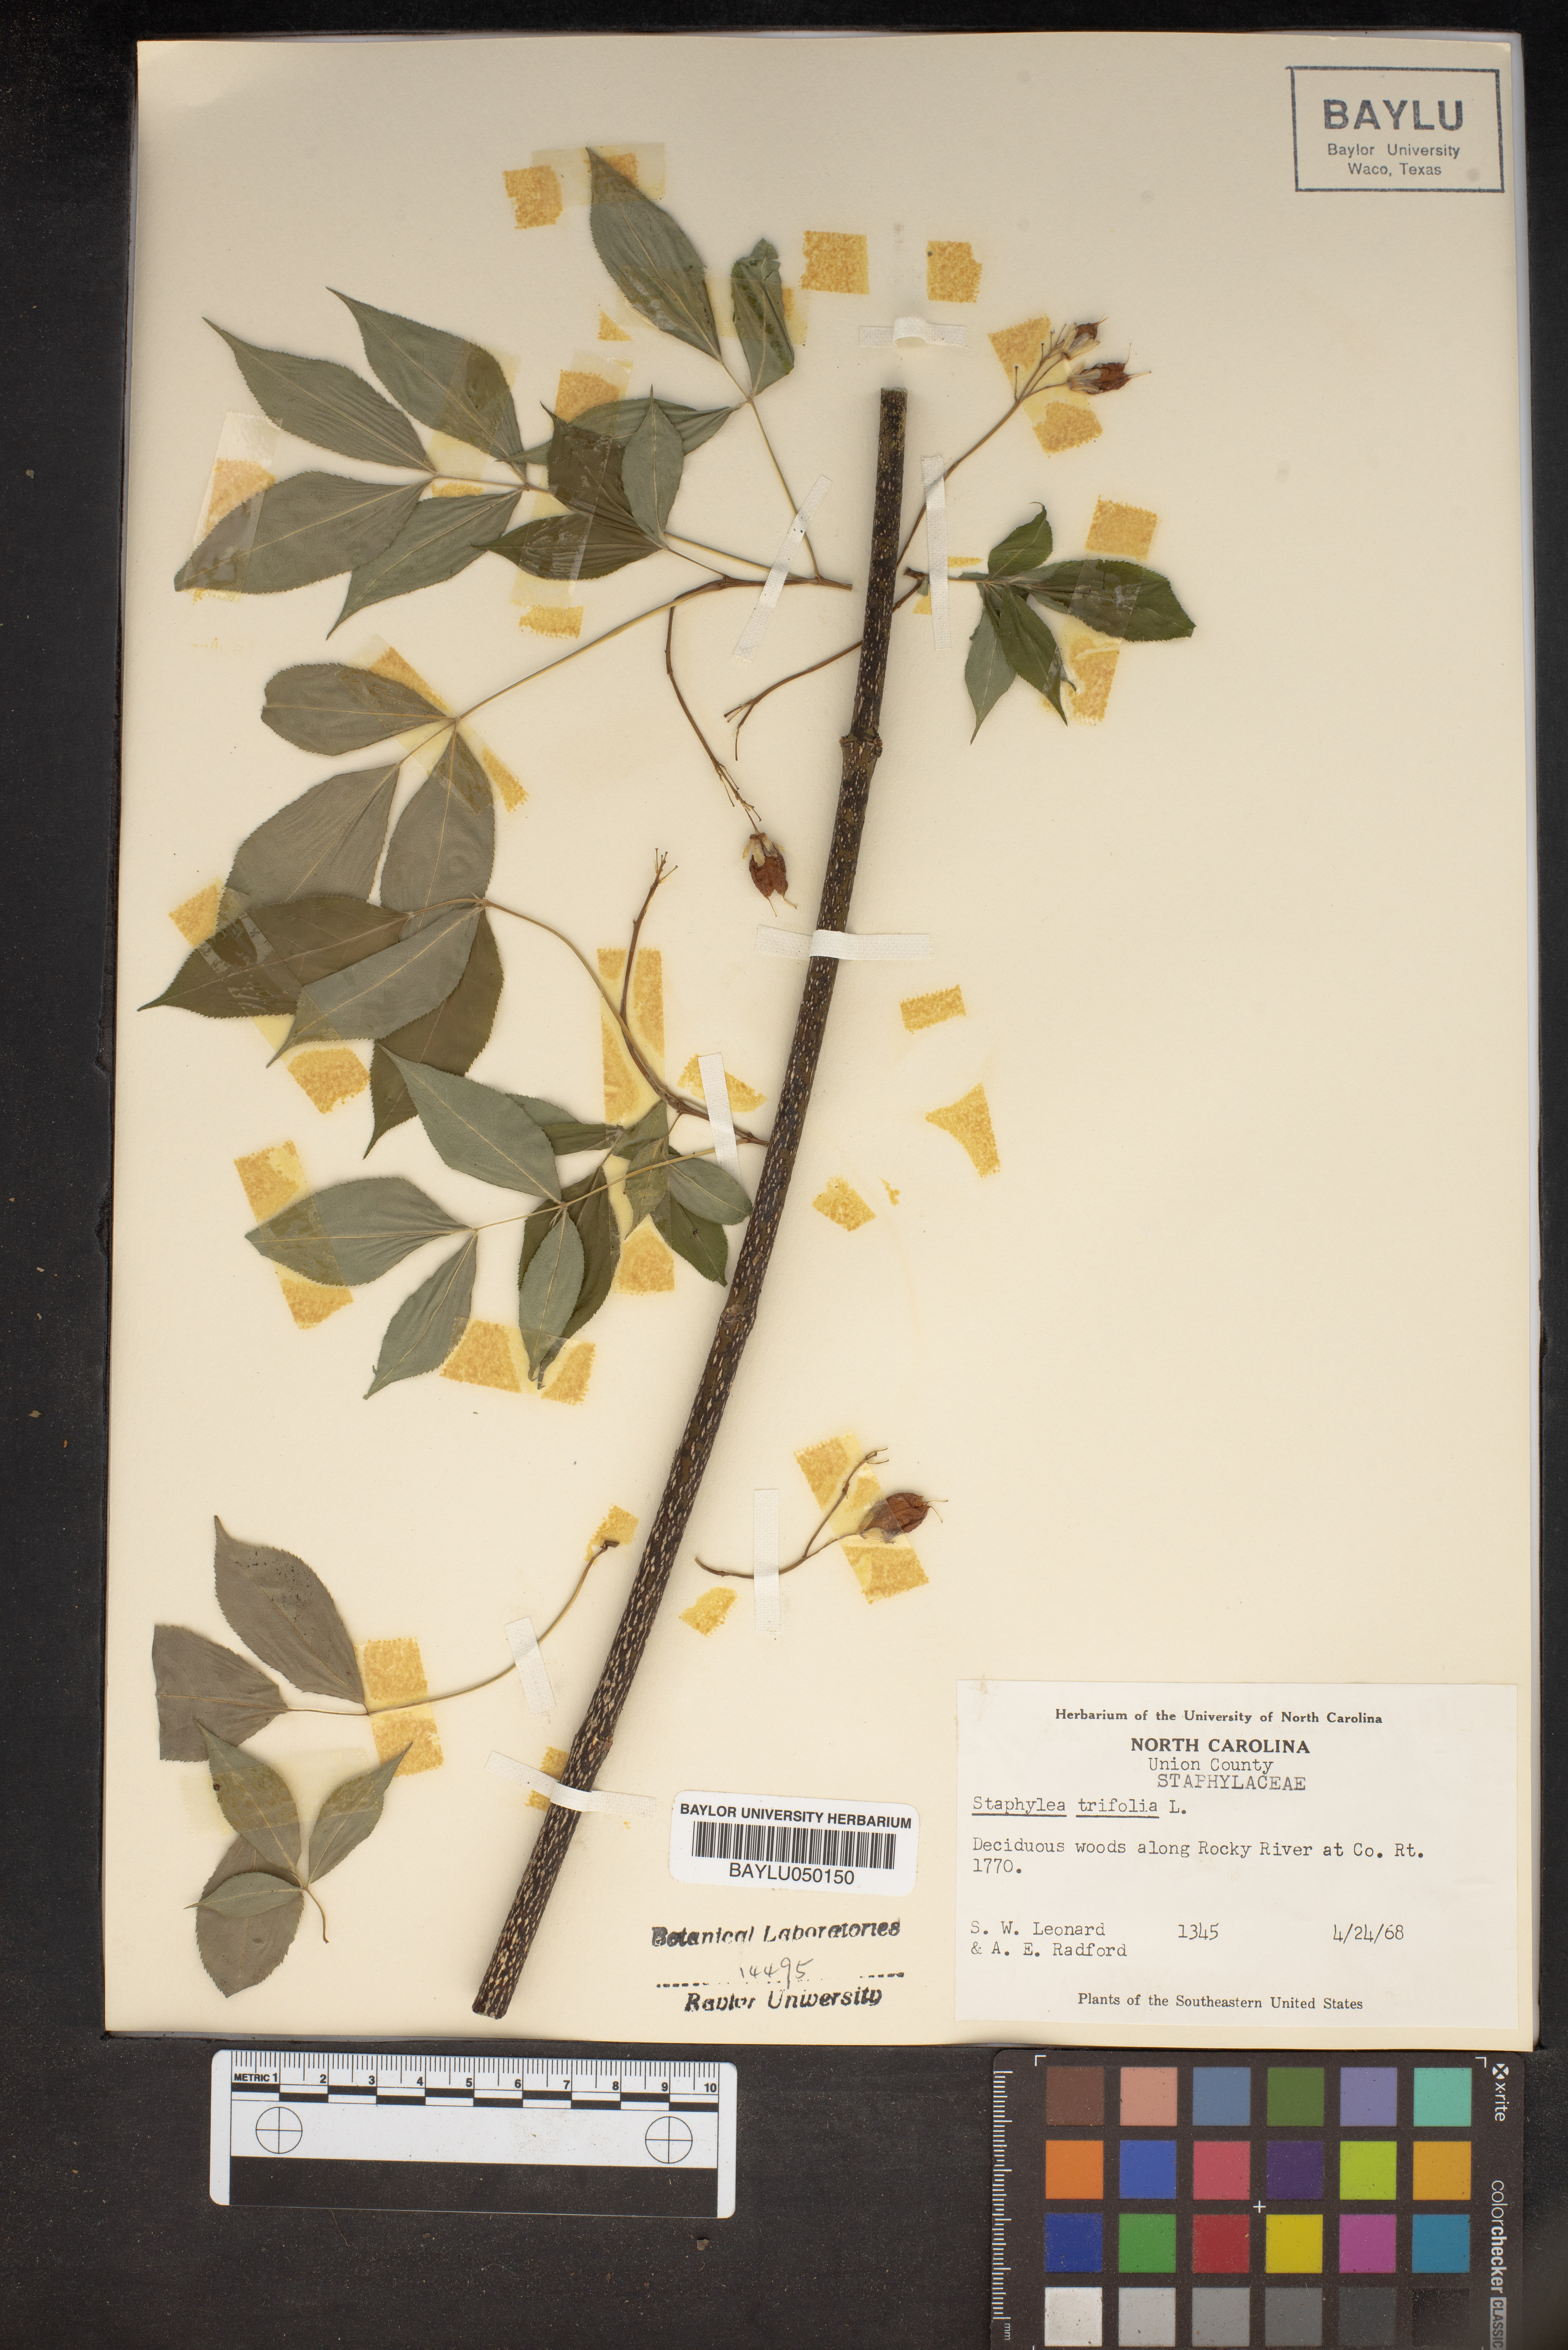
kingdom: Plantae
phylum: Tracheophyta
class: Magnoliopsida
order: Crossosomatales
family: Staphyleaceae
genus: Staphylea
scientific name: Staphylea trifolia
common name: American bladdernut
